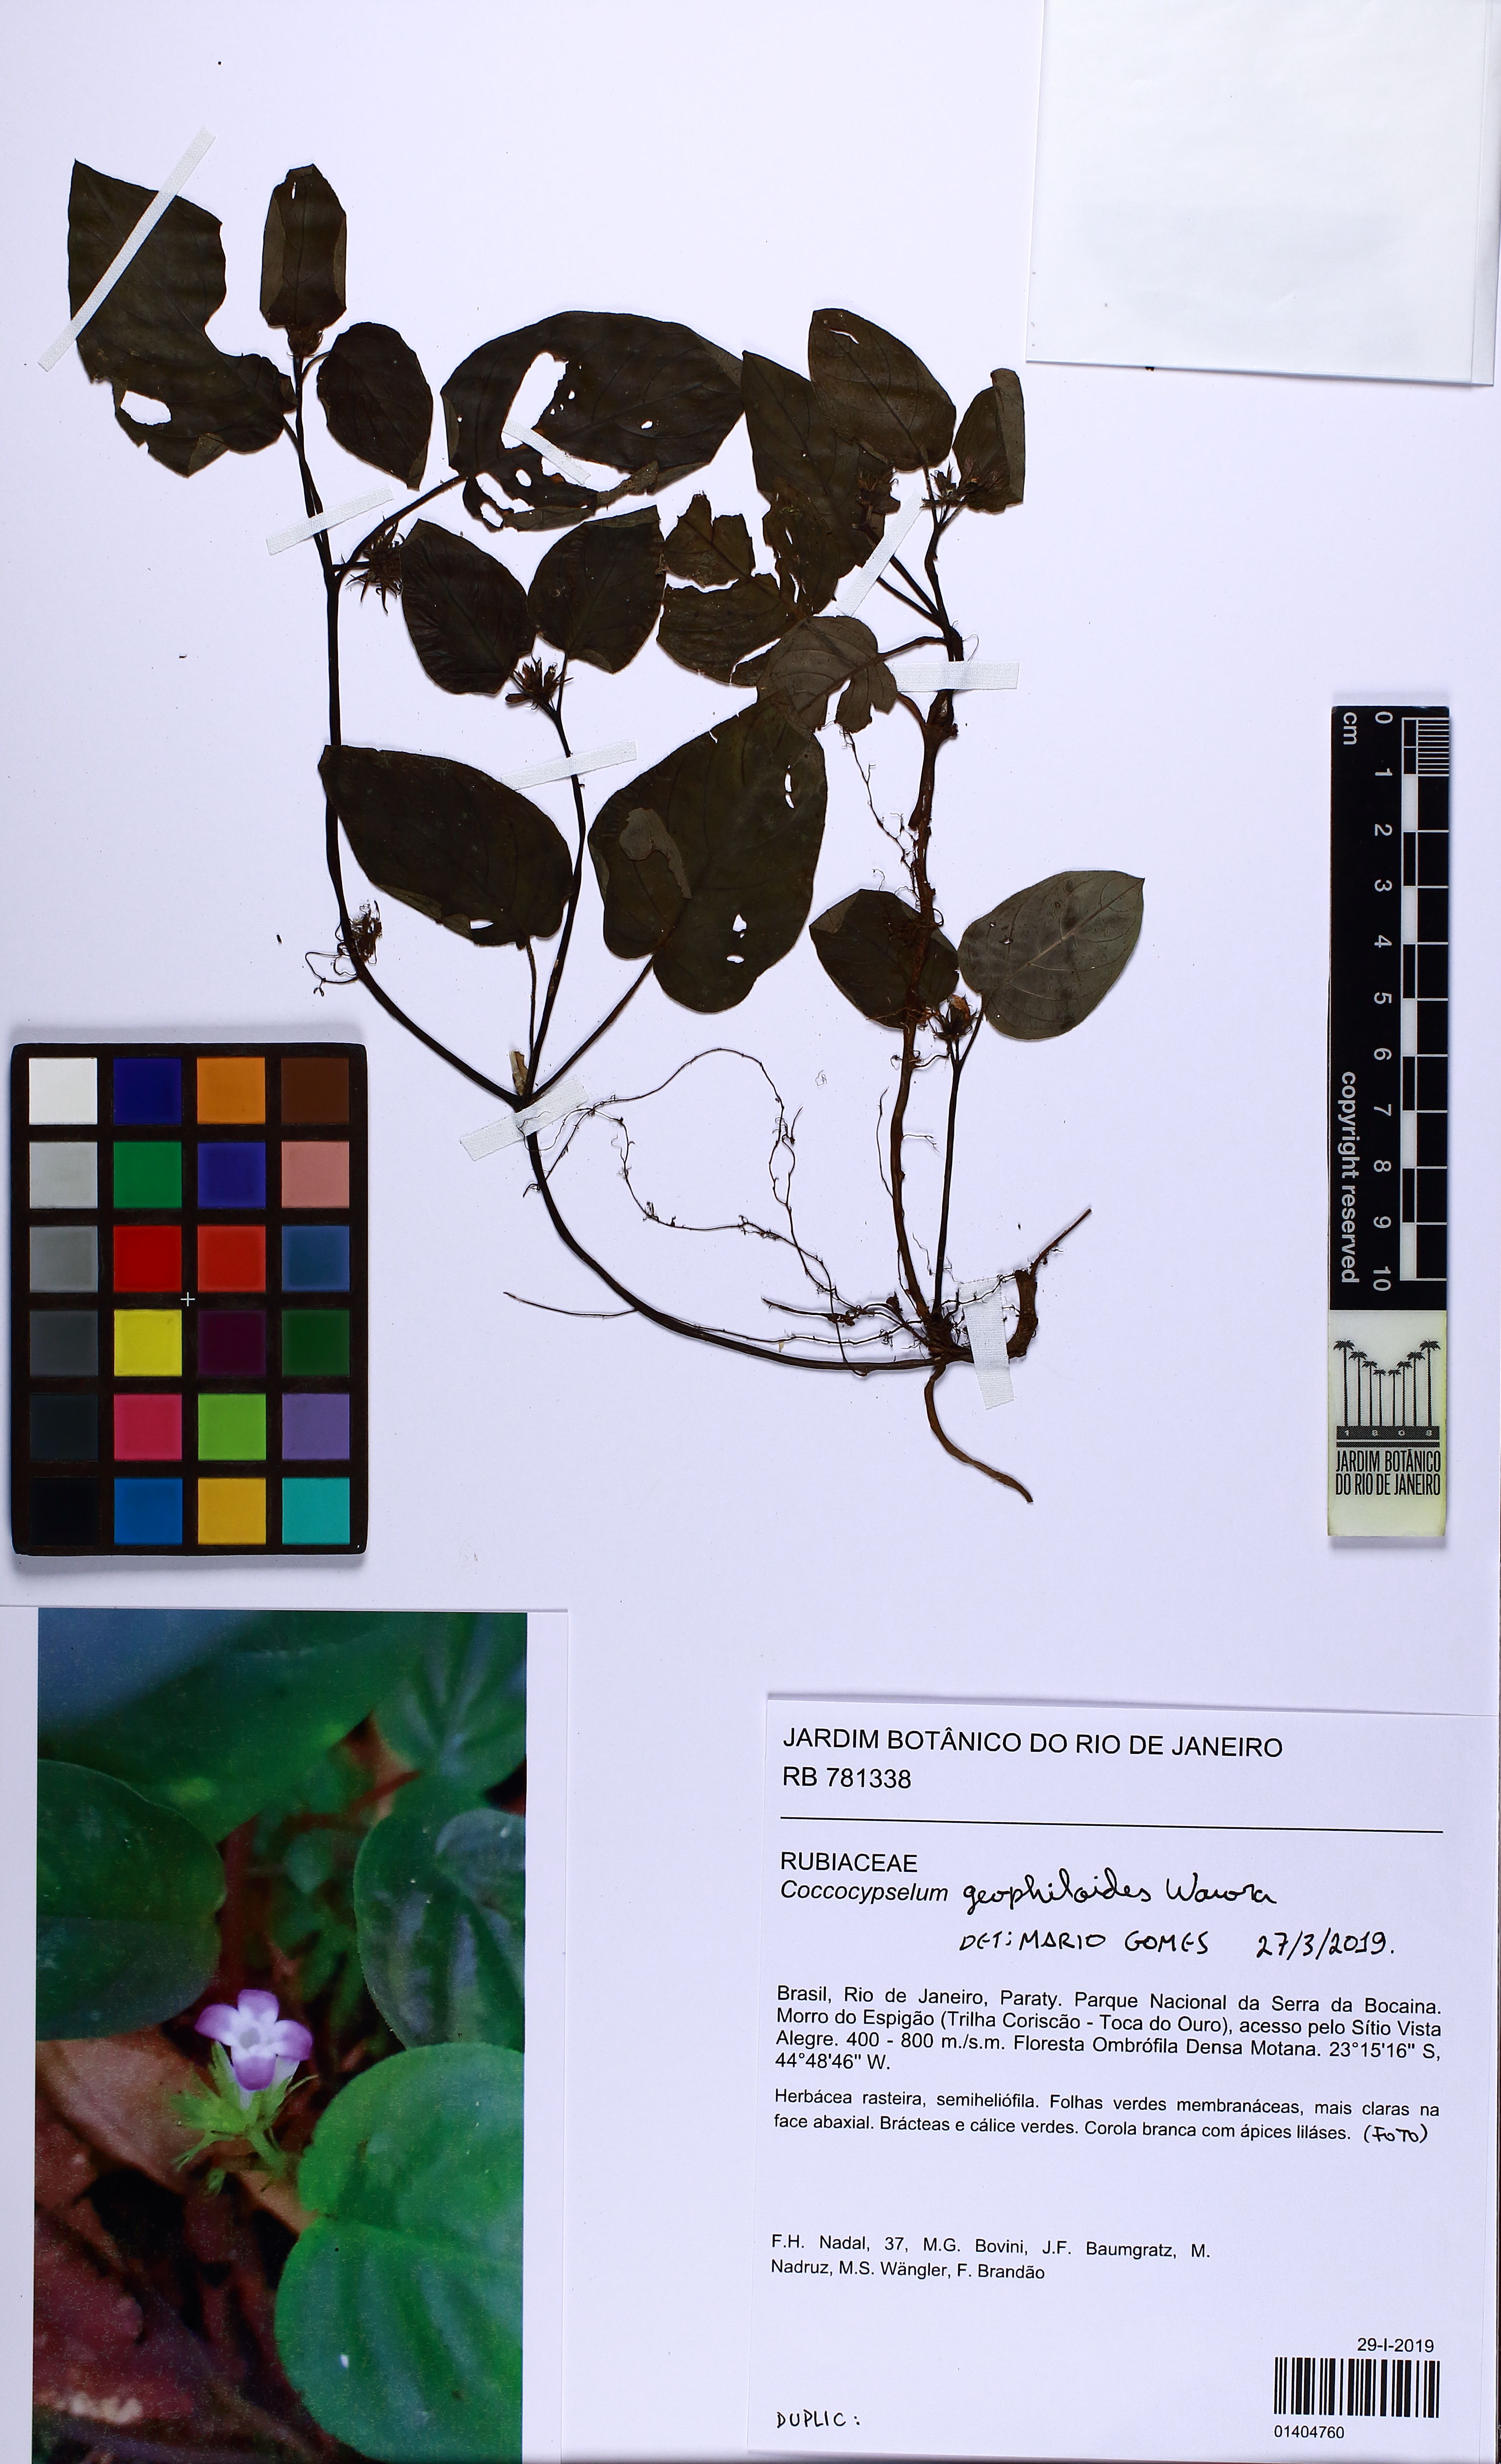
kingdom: Plantae
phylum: Tracheophyta
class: Magnoliopsida
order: Gentianales
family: Rubiaceae
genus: Coccocypselum
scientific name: Coccocypselum geophiloides
